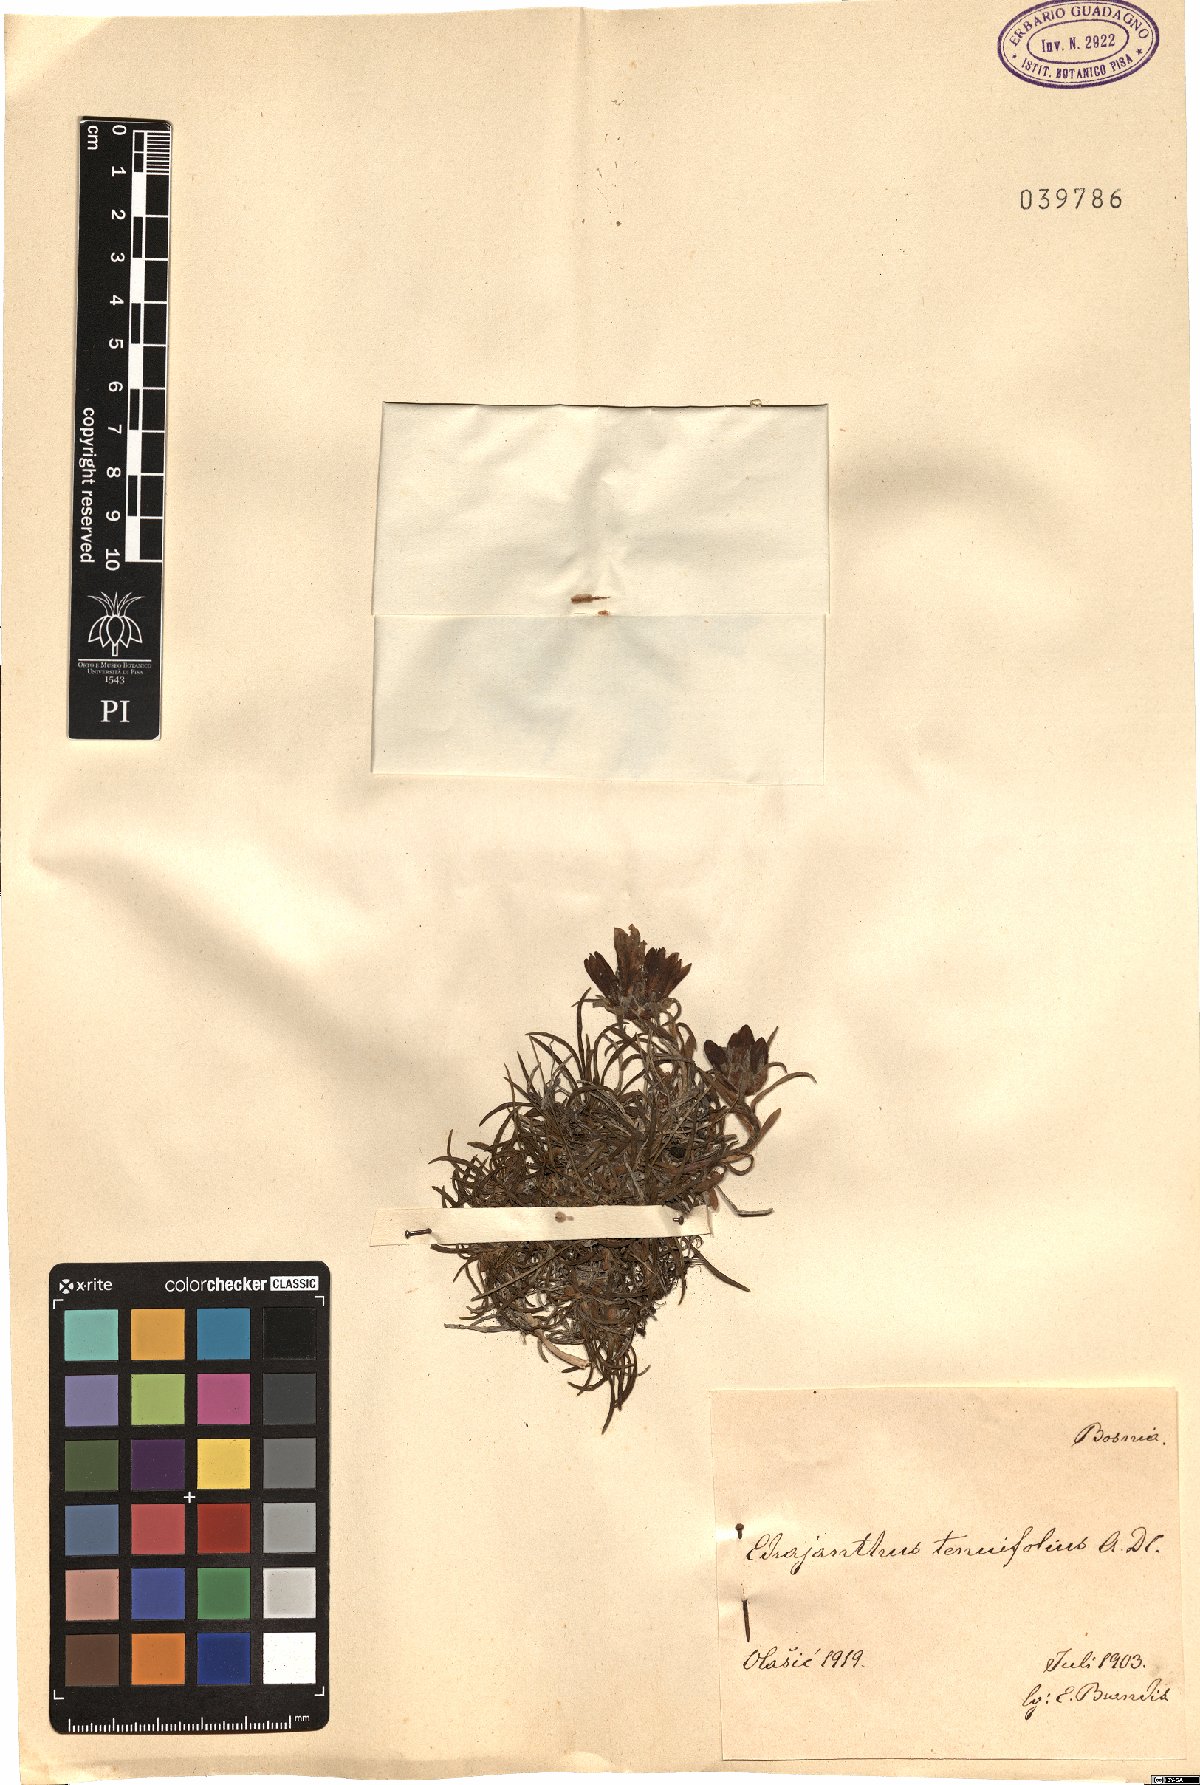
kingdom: Plantae
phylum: Tracheophyta
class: Magnoliopsida
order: Asterales
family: Campanulaceae
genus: Edraianthus
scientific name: Edraianthus tenuifolius
